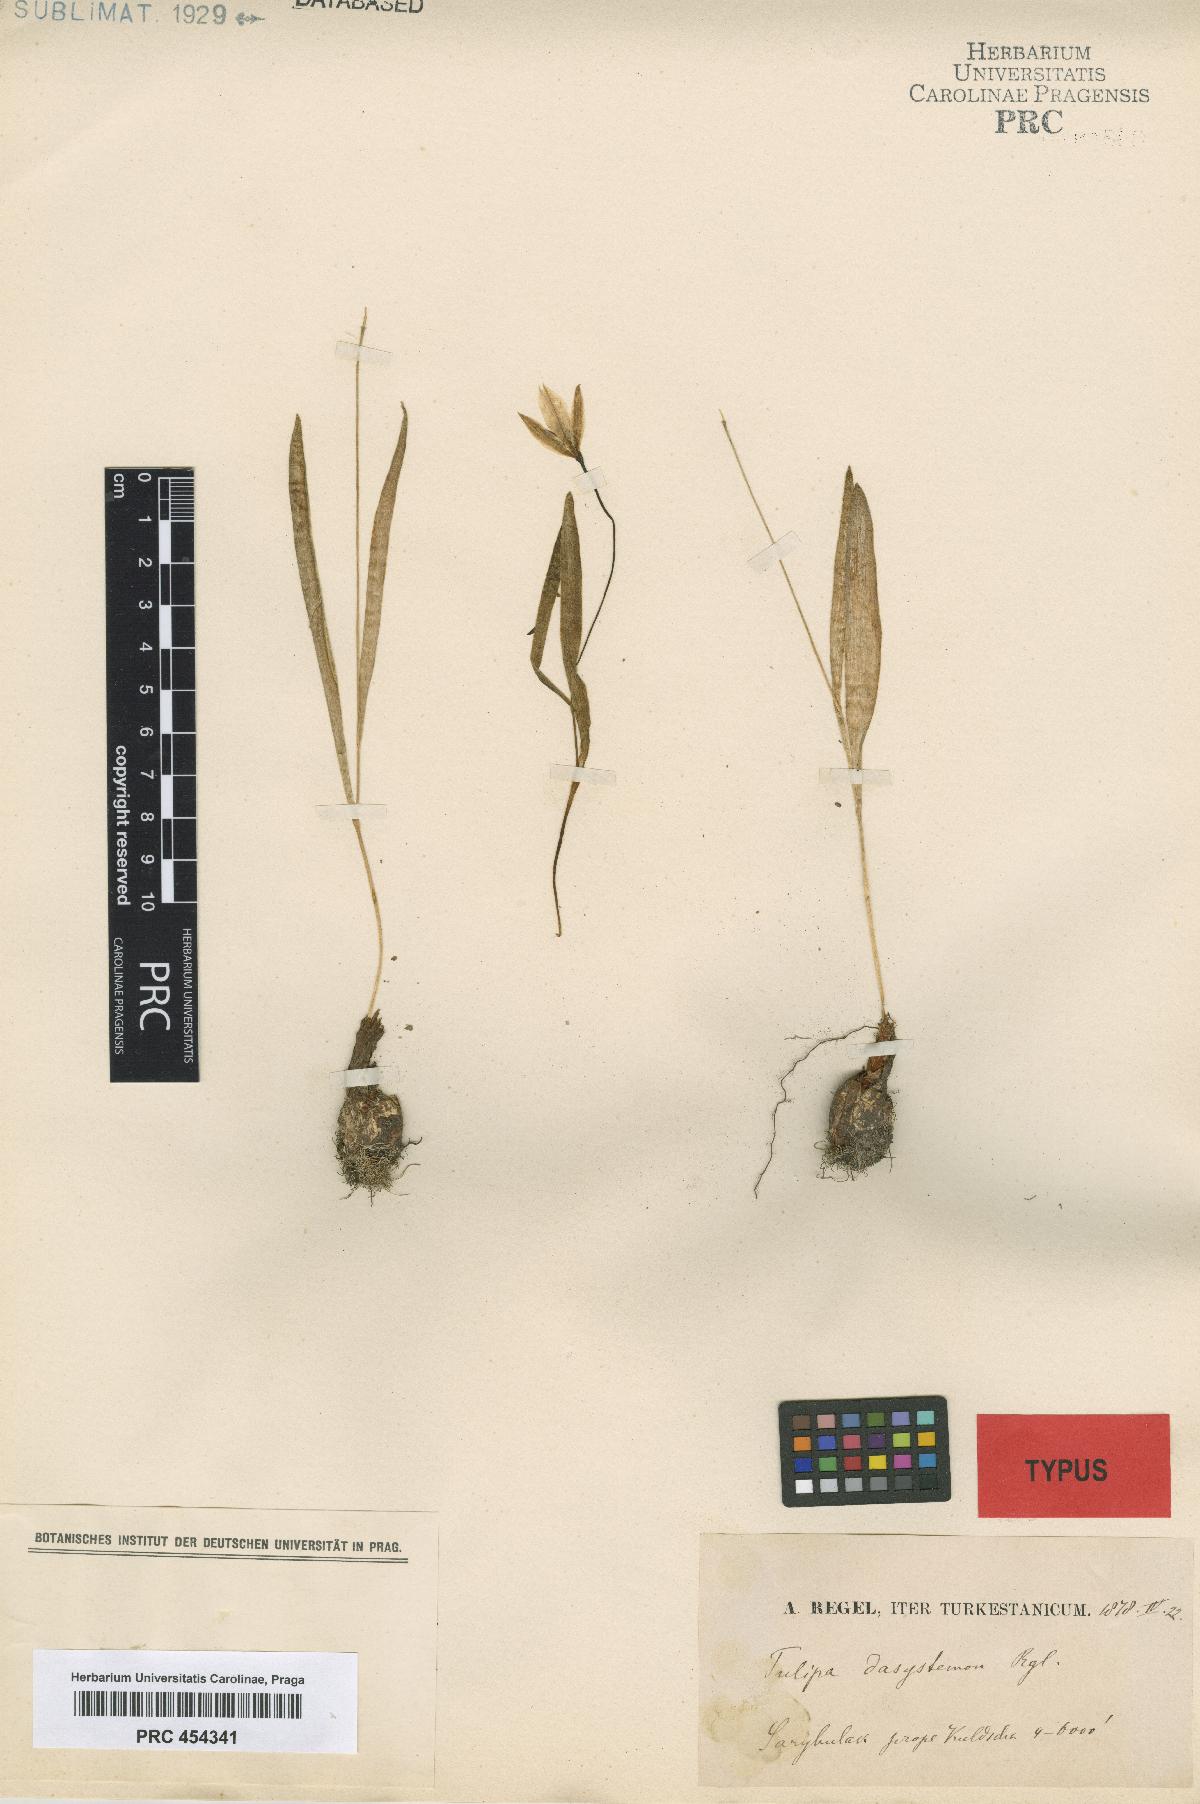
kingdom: Plantae
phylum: Tracheophyta
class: Liliopsida
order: Liliales
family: Liliaceae
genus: Tulipa
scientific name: Tulipa dasystemon
